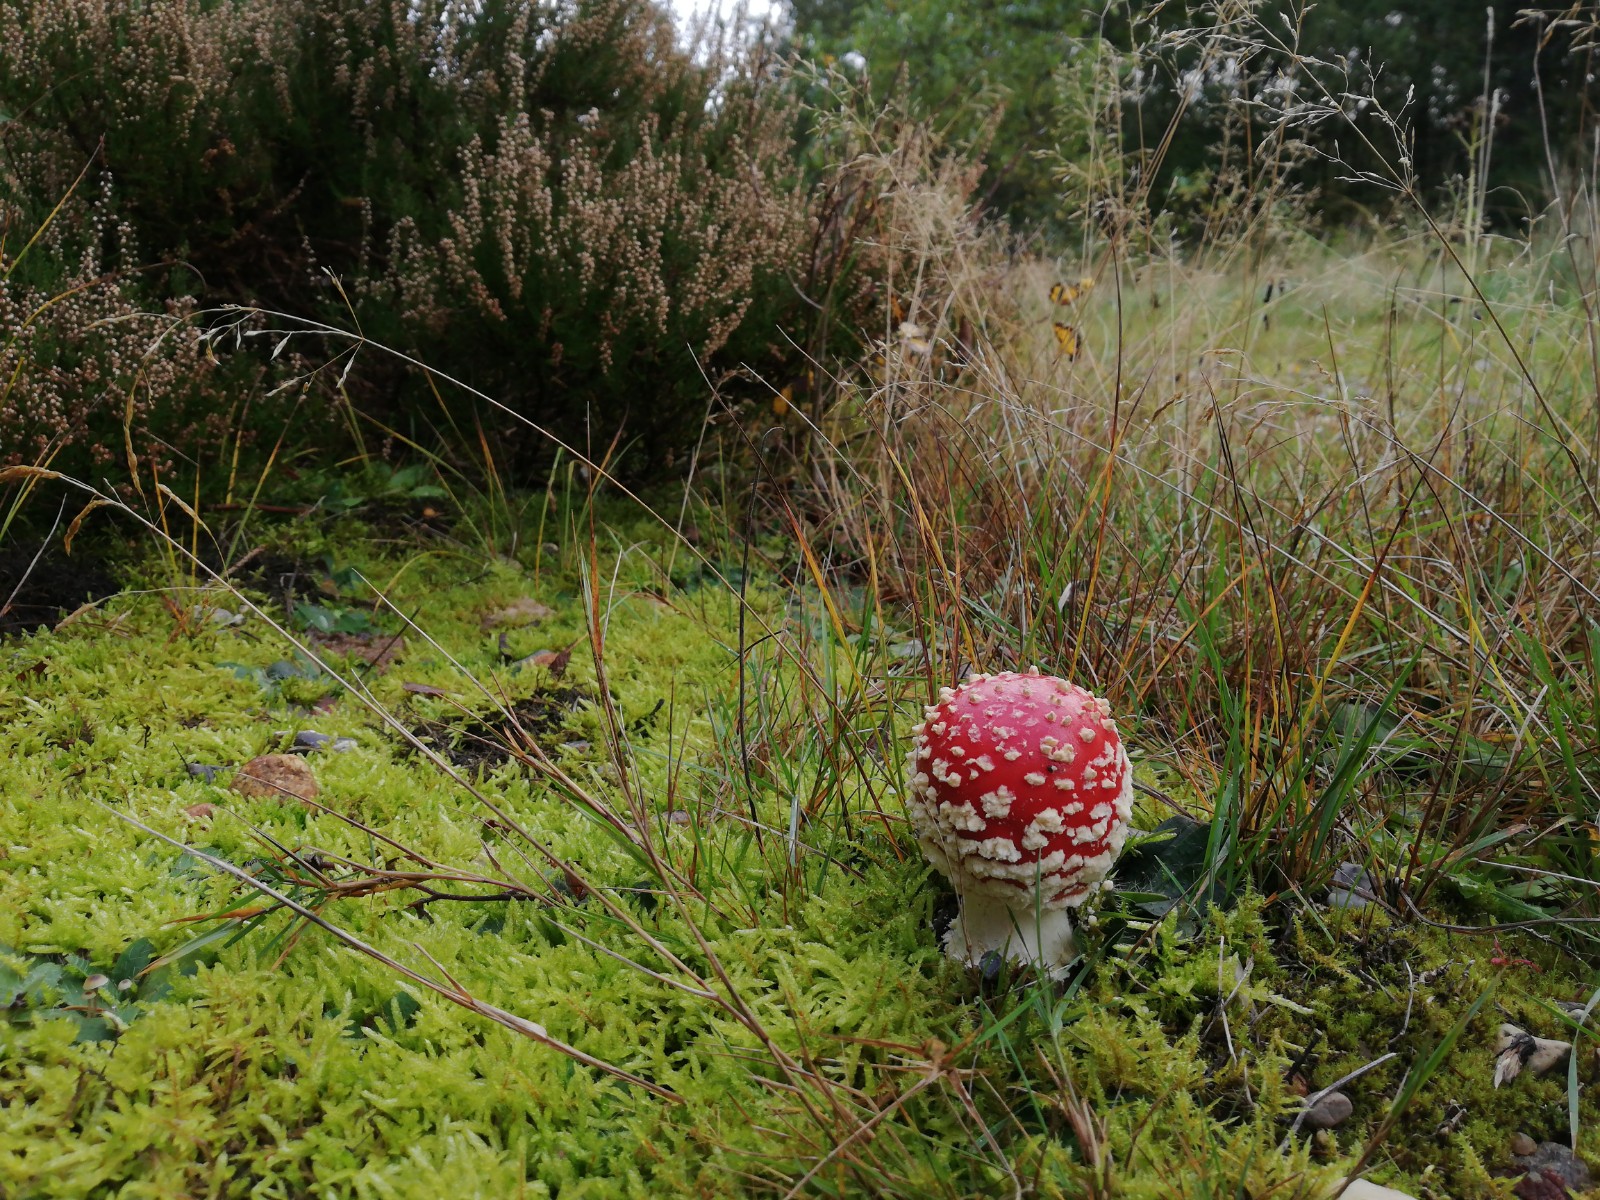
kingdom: Fungi
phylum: Basidiomycota
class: Agaricomycetes
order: Agaricales
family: Amanitaceae
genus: Amanita
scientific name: Amanita muscaria
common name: rød fluesvamp
